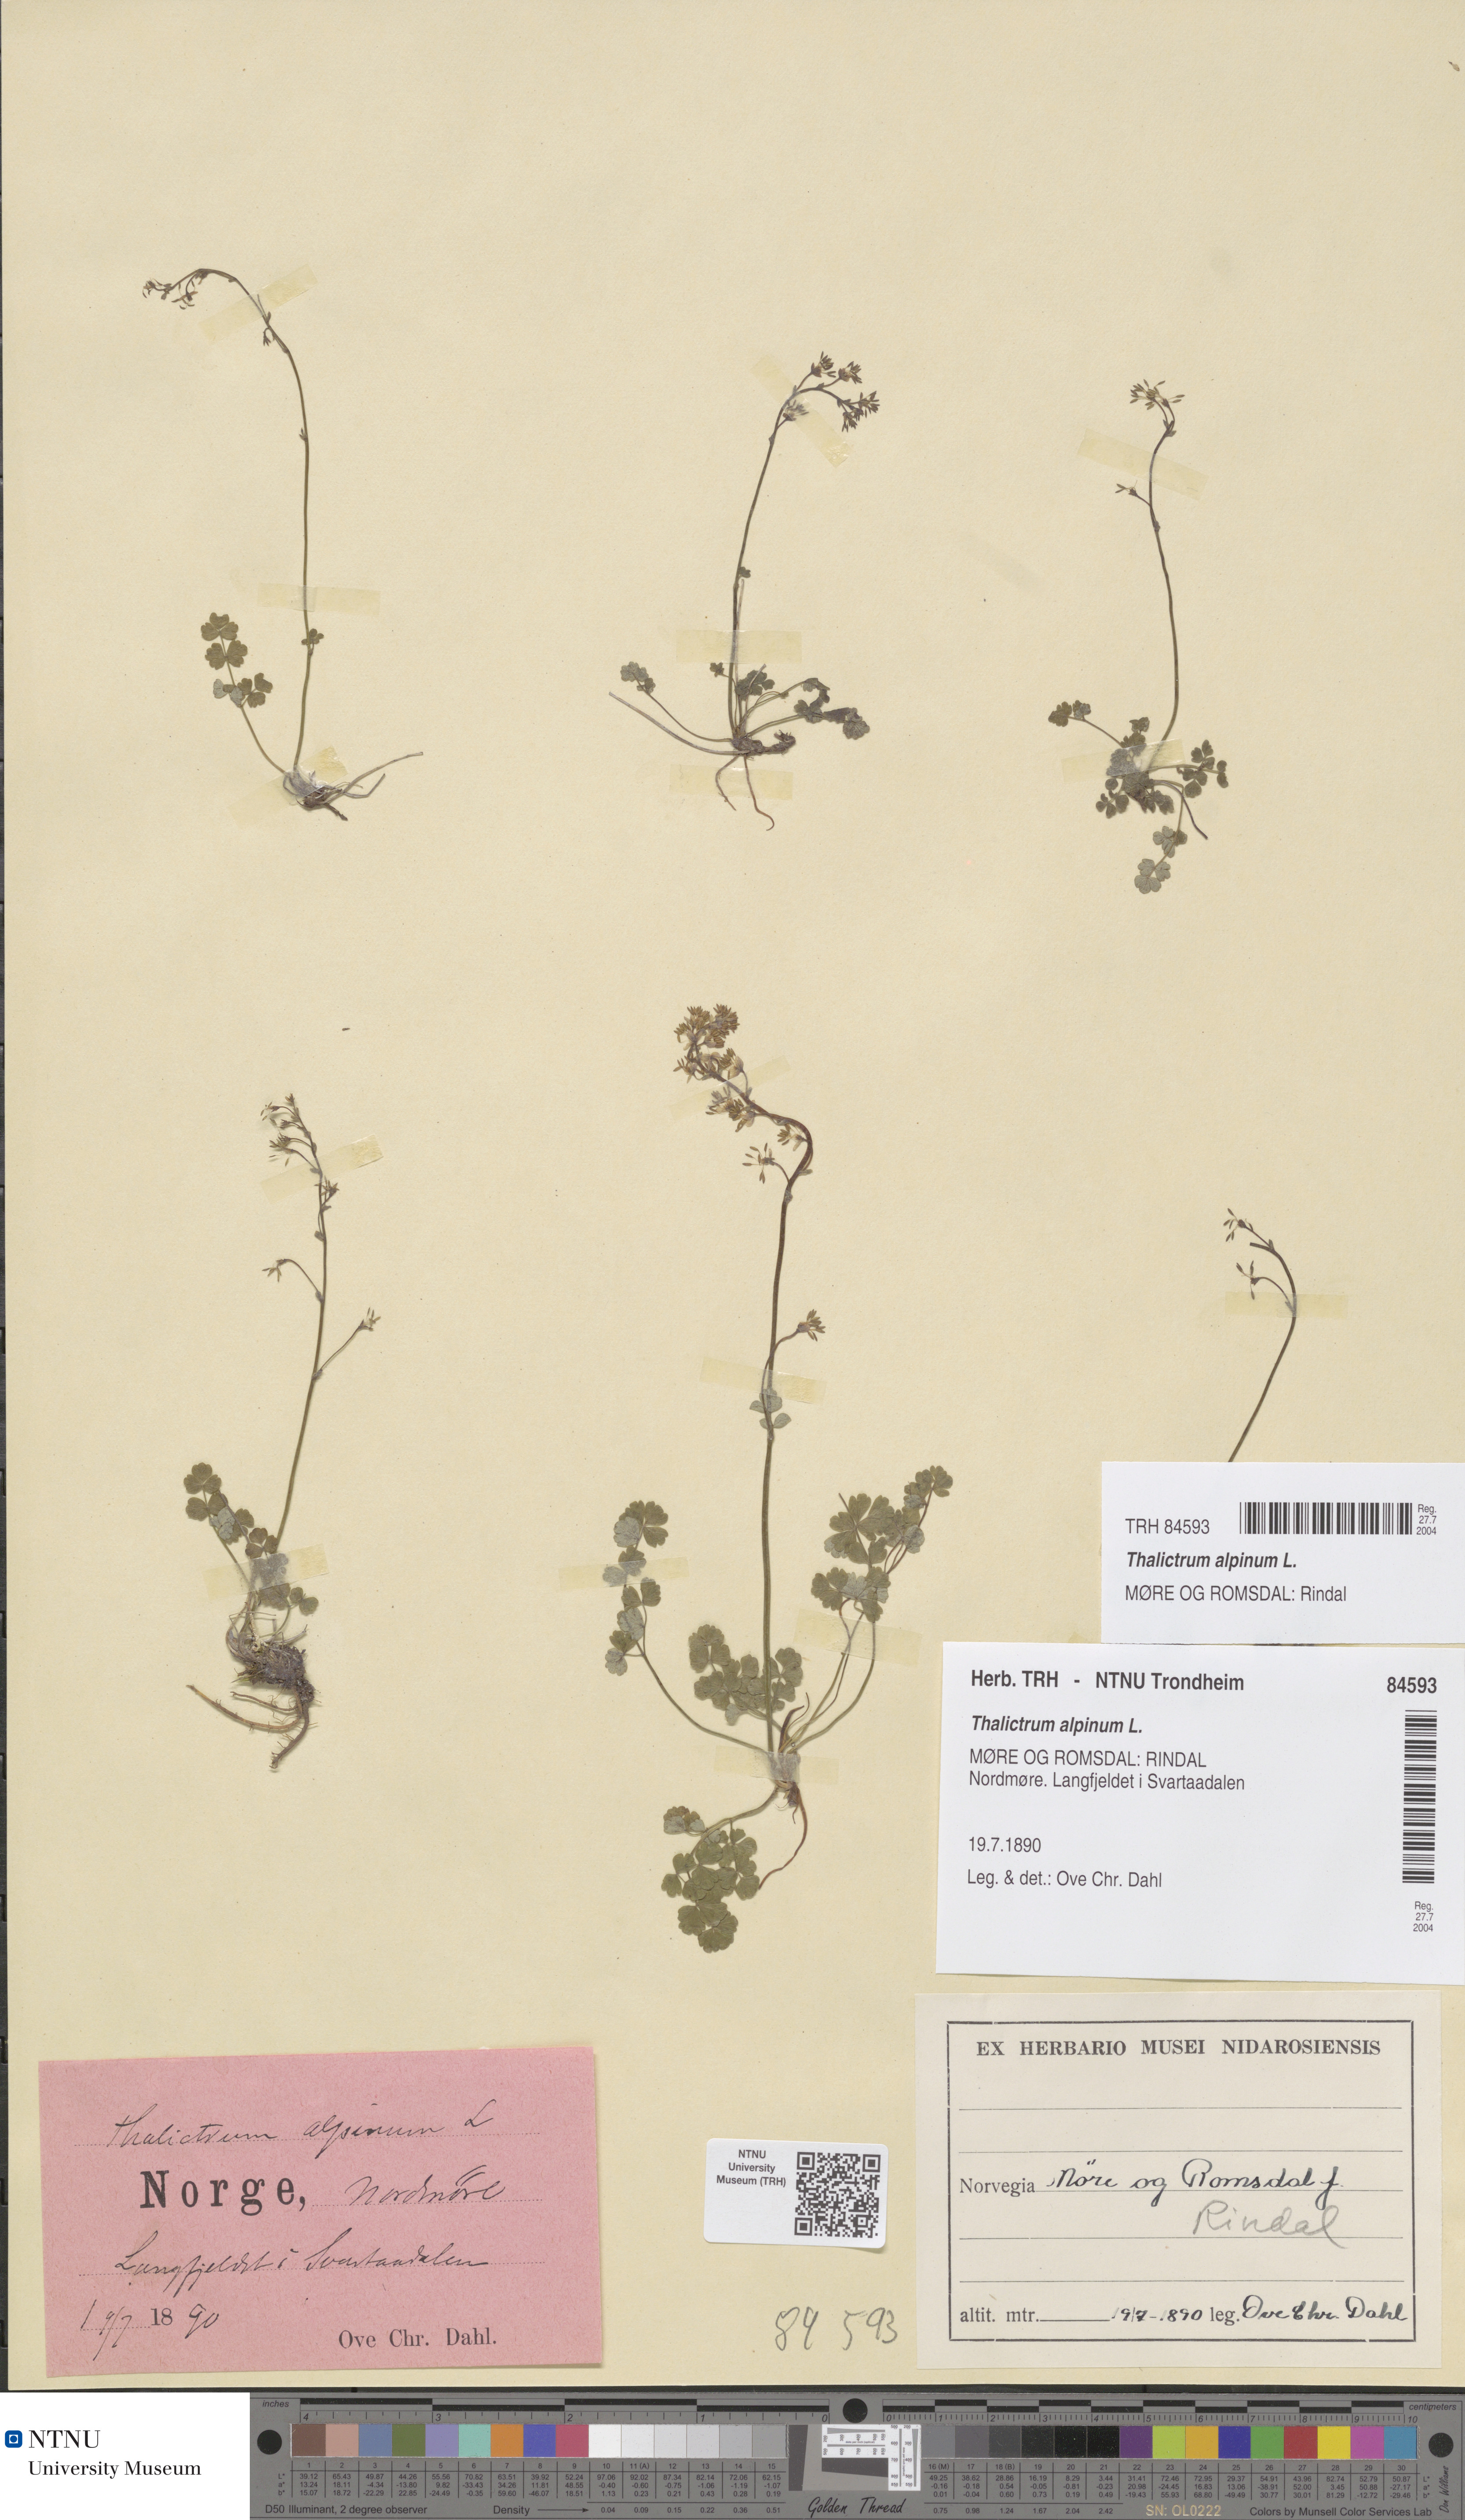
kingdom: Plantae
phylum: Tracheophyta
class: Magnoliopsida
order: Ranunculales
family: Ranunculaceae
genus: Thalictrum
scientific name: Thalictrum alpinum
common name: Alpine meadow-rue
